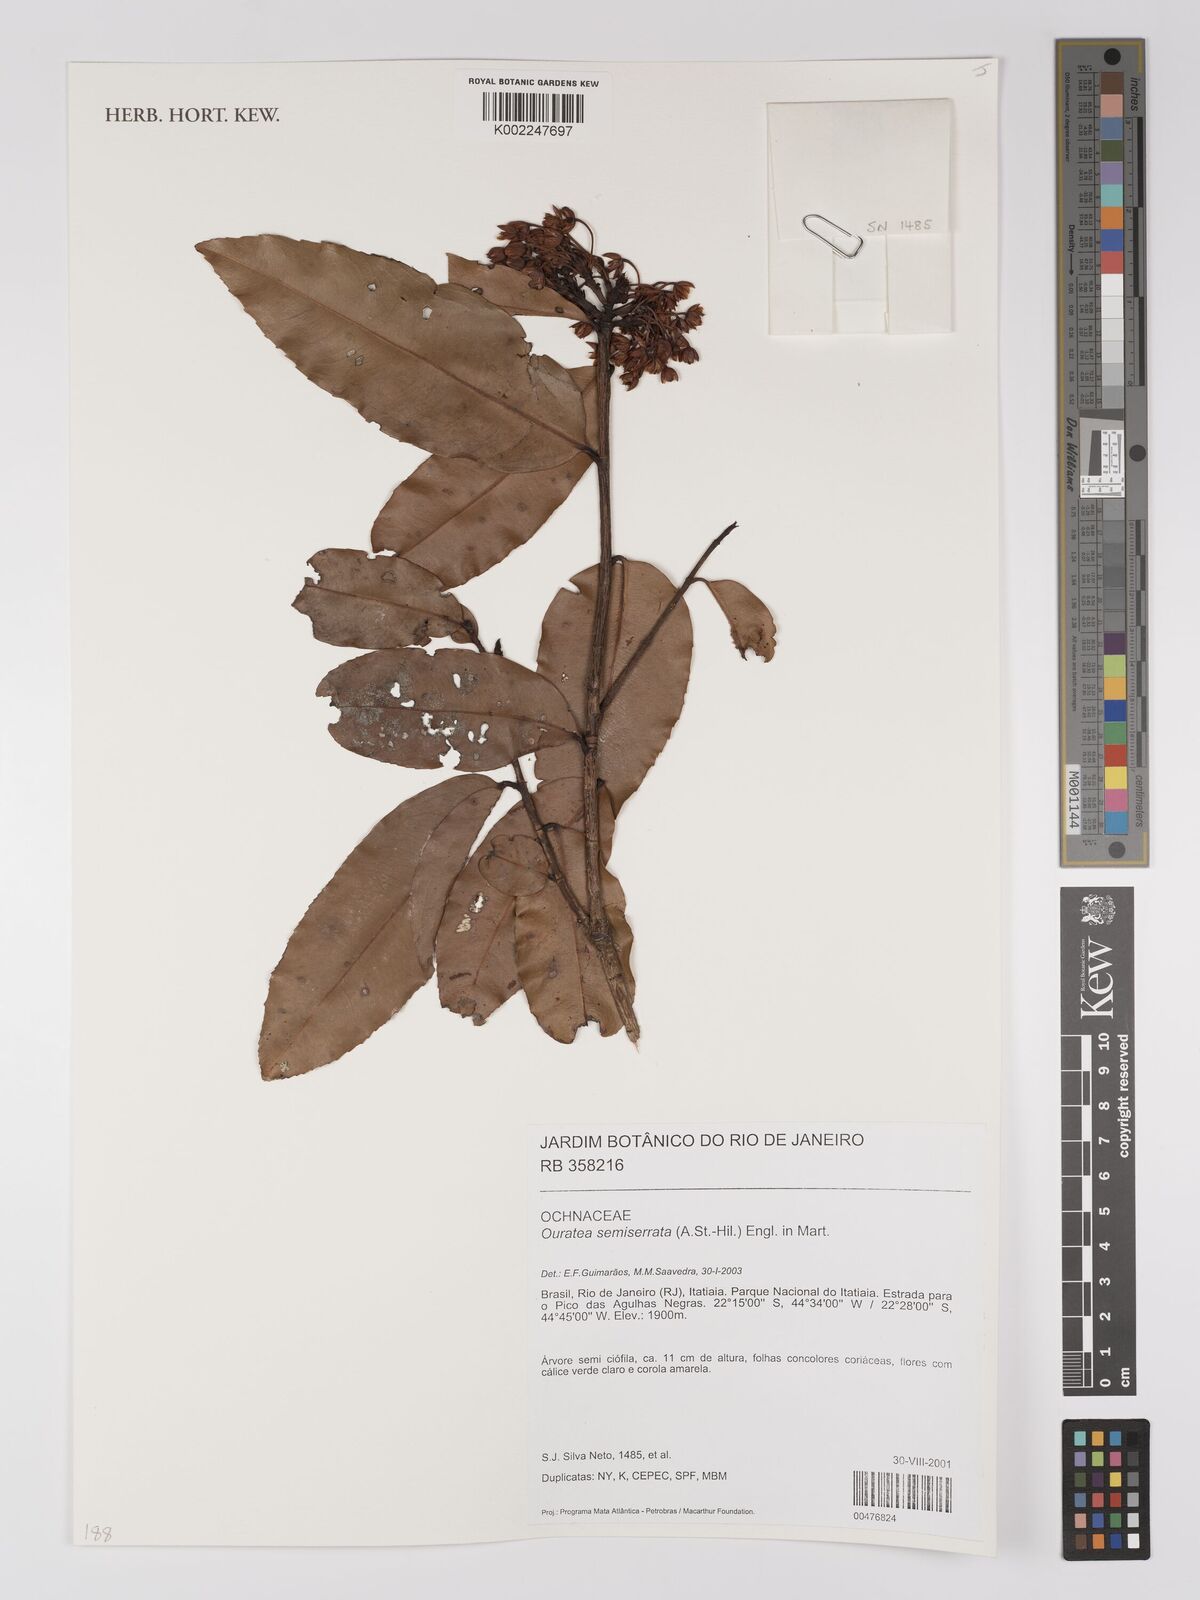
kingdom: Plantae
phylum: Tracheophyta
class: Magnoliopsida
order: Malpighiales
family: Ochnaceae
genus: Ouratea
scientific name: Ouratea semiserrata
